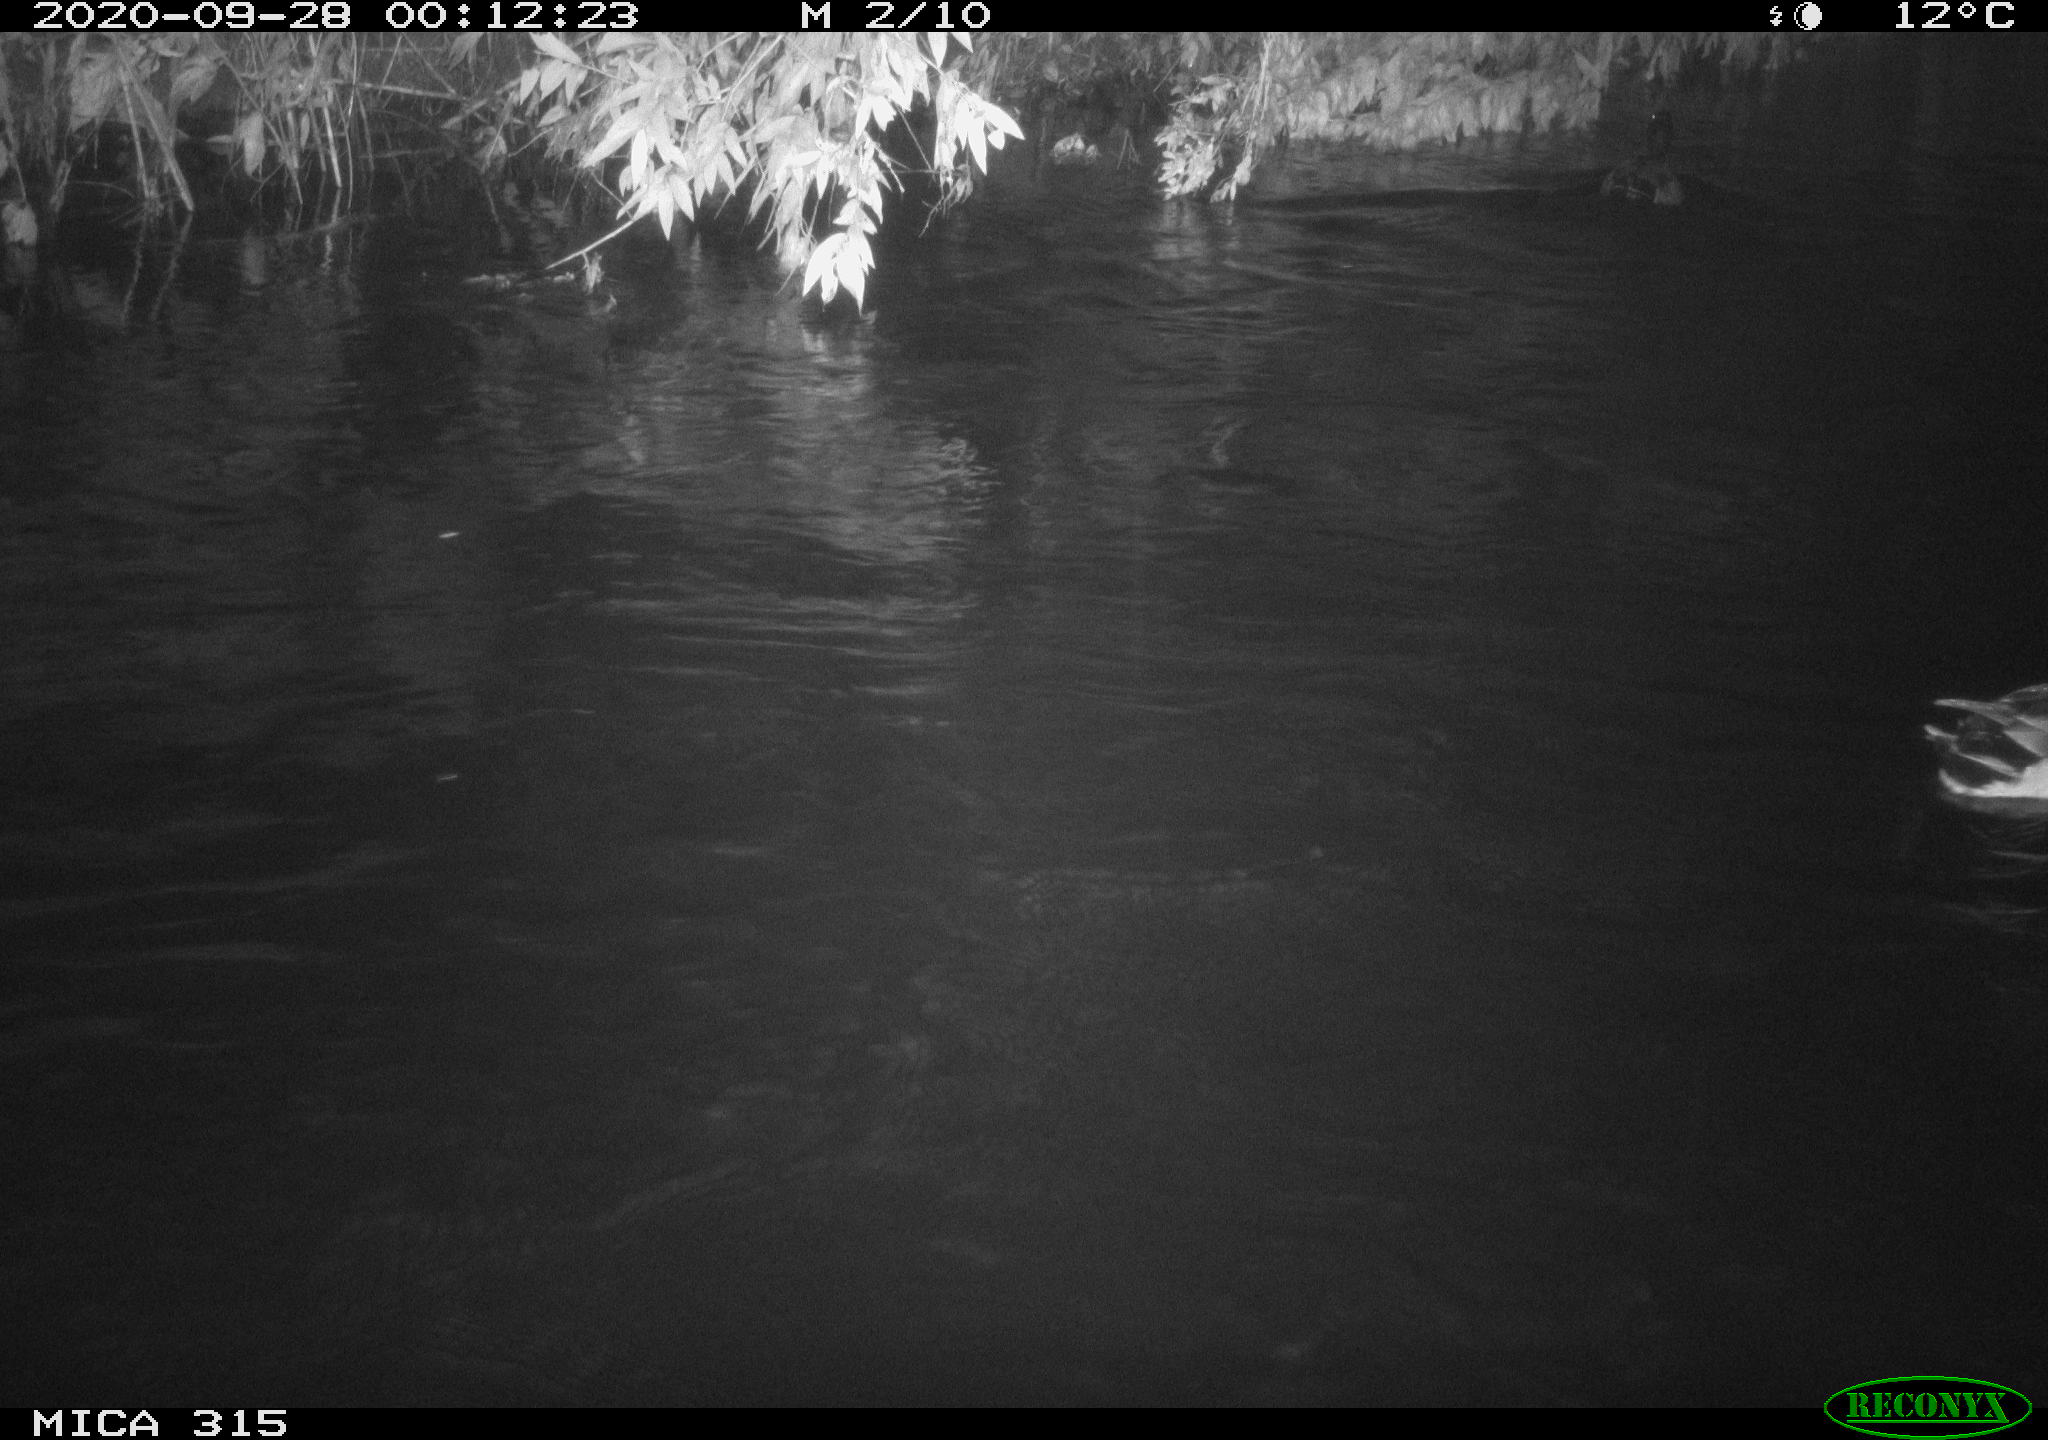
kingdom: Animalia
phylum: Chordata
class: Aves
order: Anseriformes
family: Anatidae
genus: Anas
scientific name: Anas platyrhynchos
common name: Mallard
